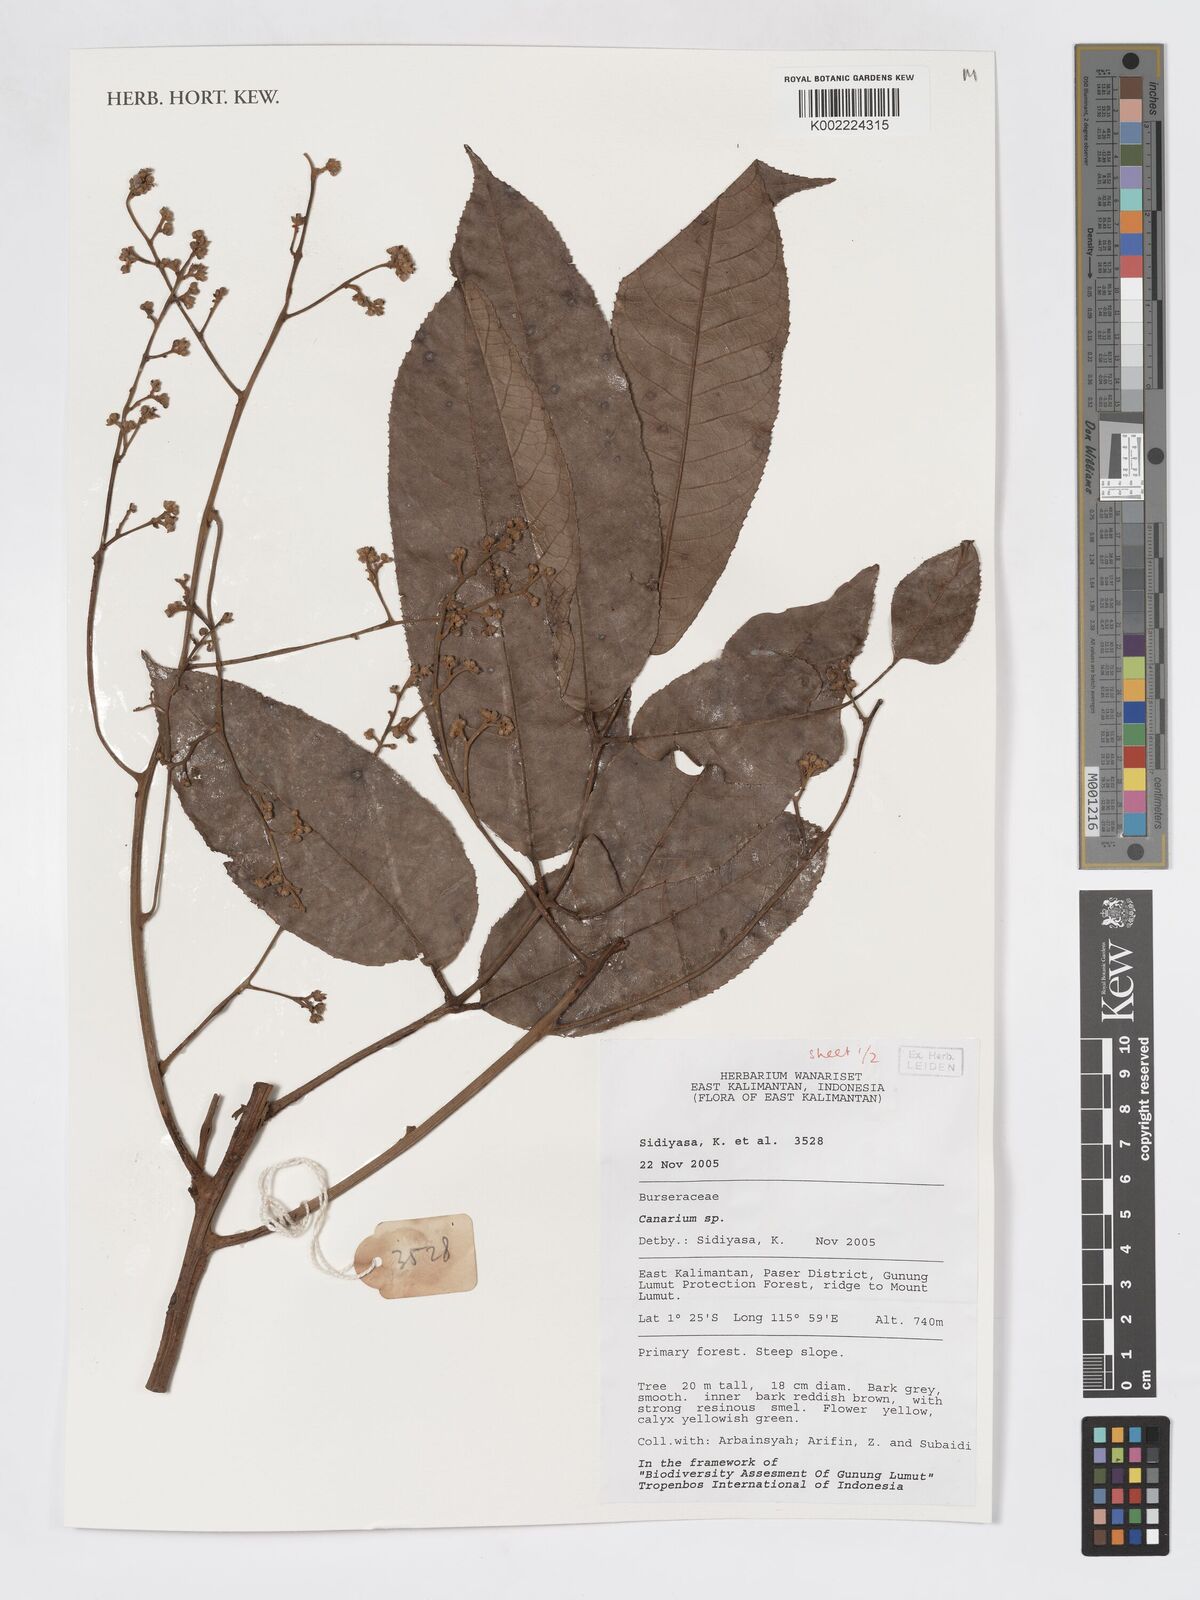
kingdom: Plantae
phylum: Tracheophyta
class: Magnoliopsida
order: Sapindales
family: Burseraceae
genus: Canarium
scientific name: Canarium
